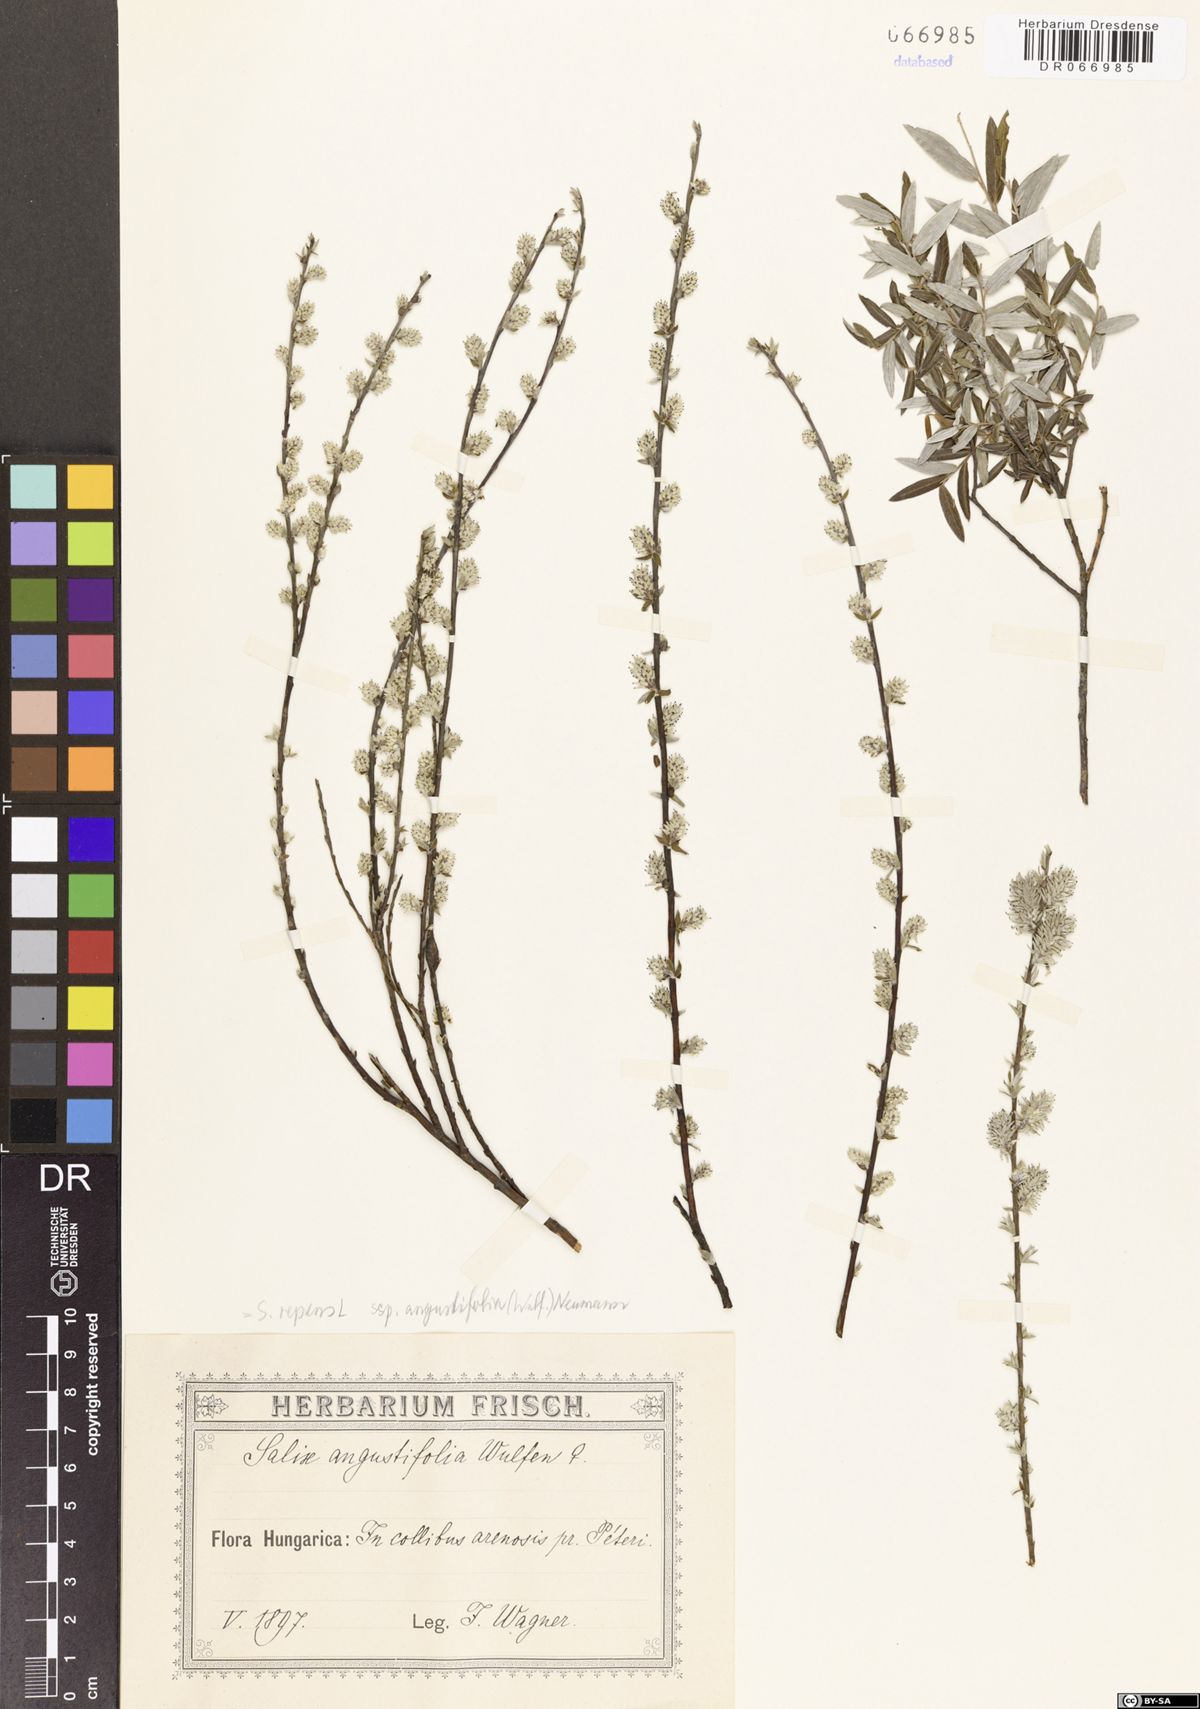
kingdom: Plantae
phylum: Tracheophyta
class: Magnoliopsida
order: Malpighiales
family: Salicaceae
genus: Salix
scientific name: Salix repens
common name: Creeping willow
